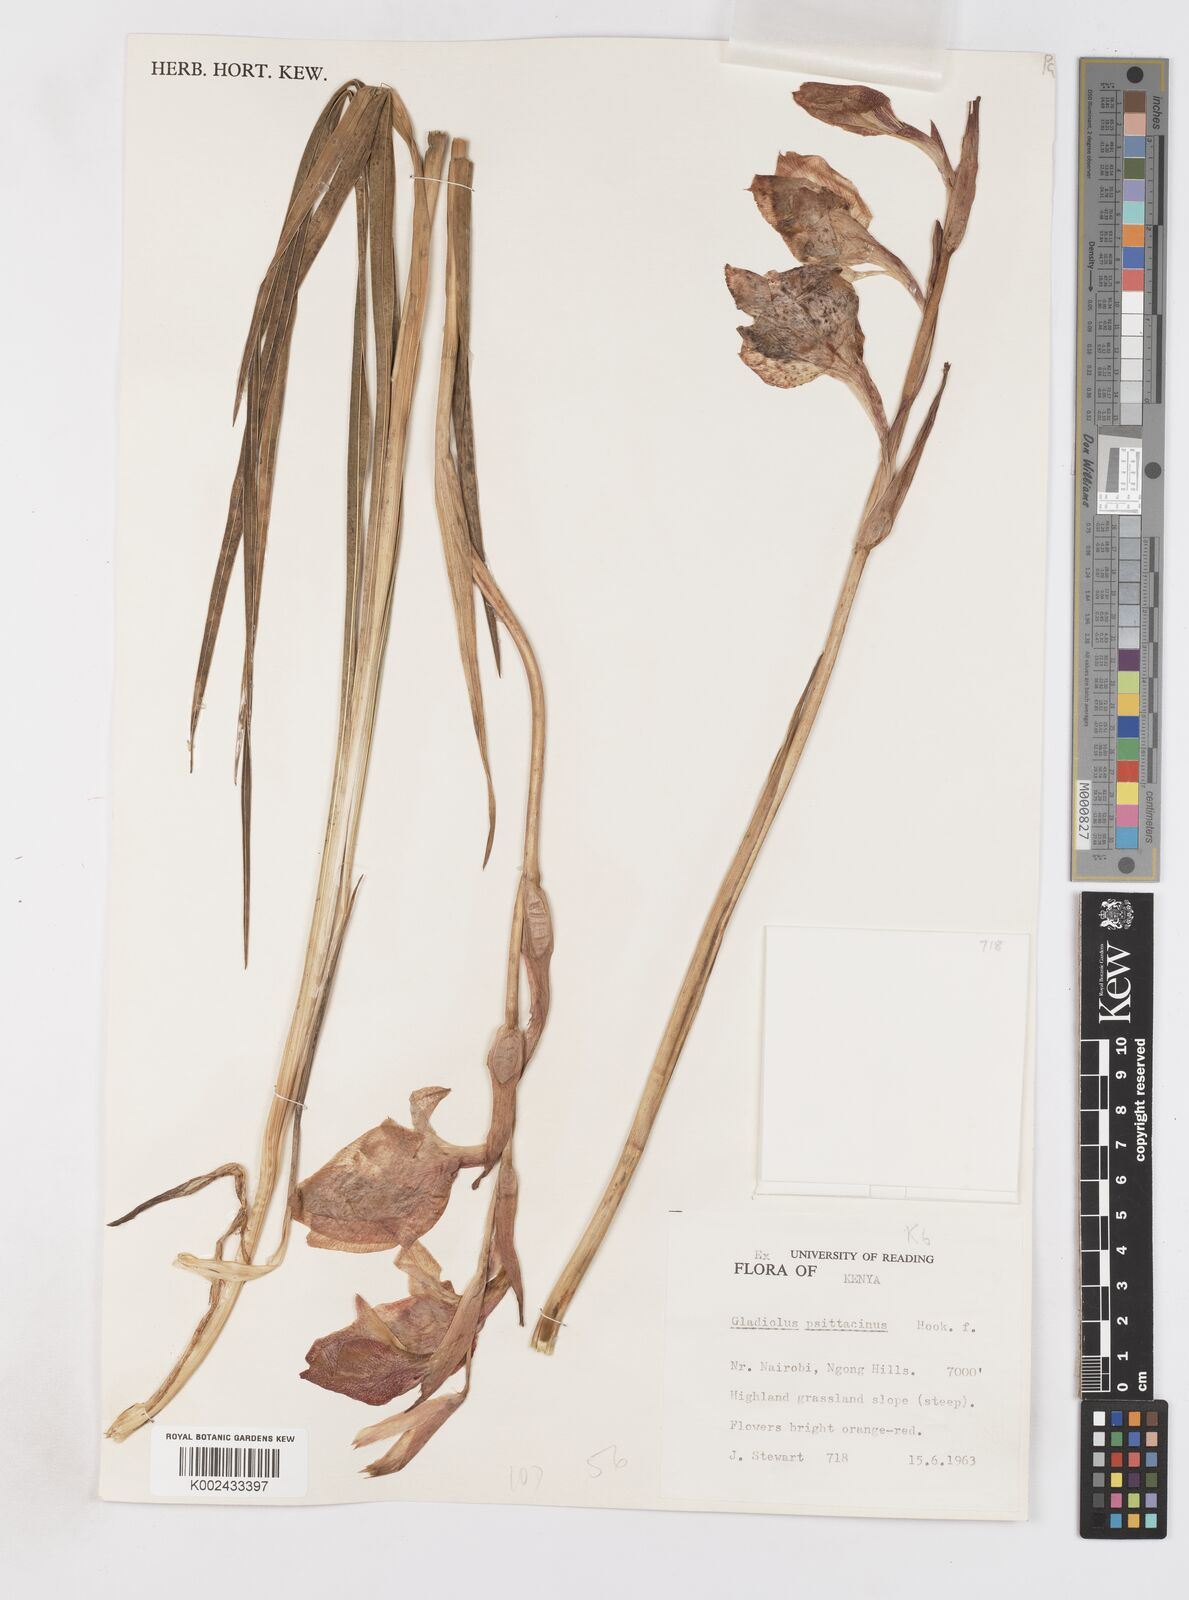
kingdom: Plantae
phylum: Tracheophyta
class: Liliopsida
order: Asparagales
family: Iridaceae
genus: Gladiolus
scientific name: Gladiolus dalenii
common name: Cornflag
